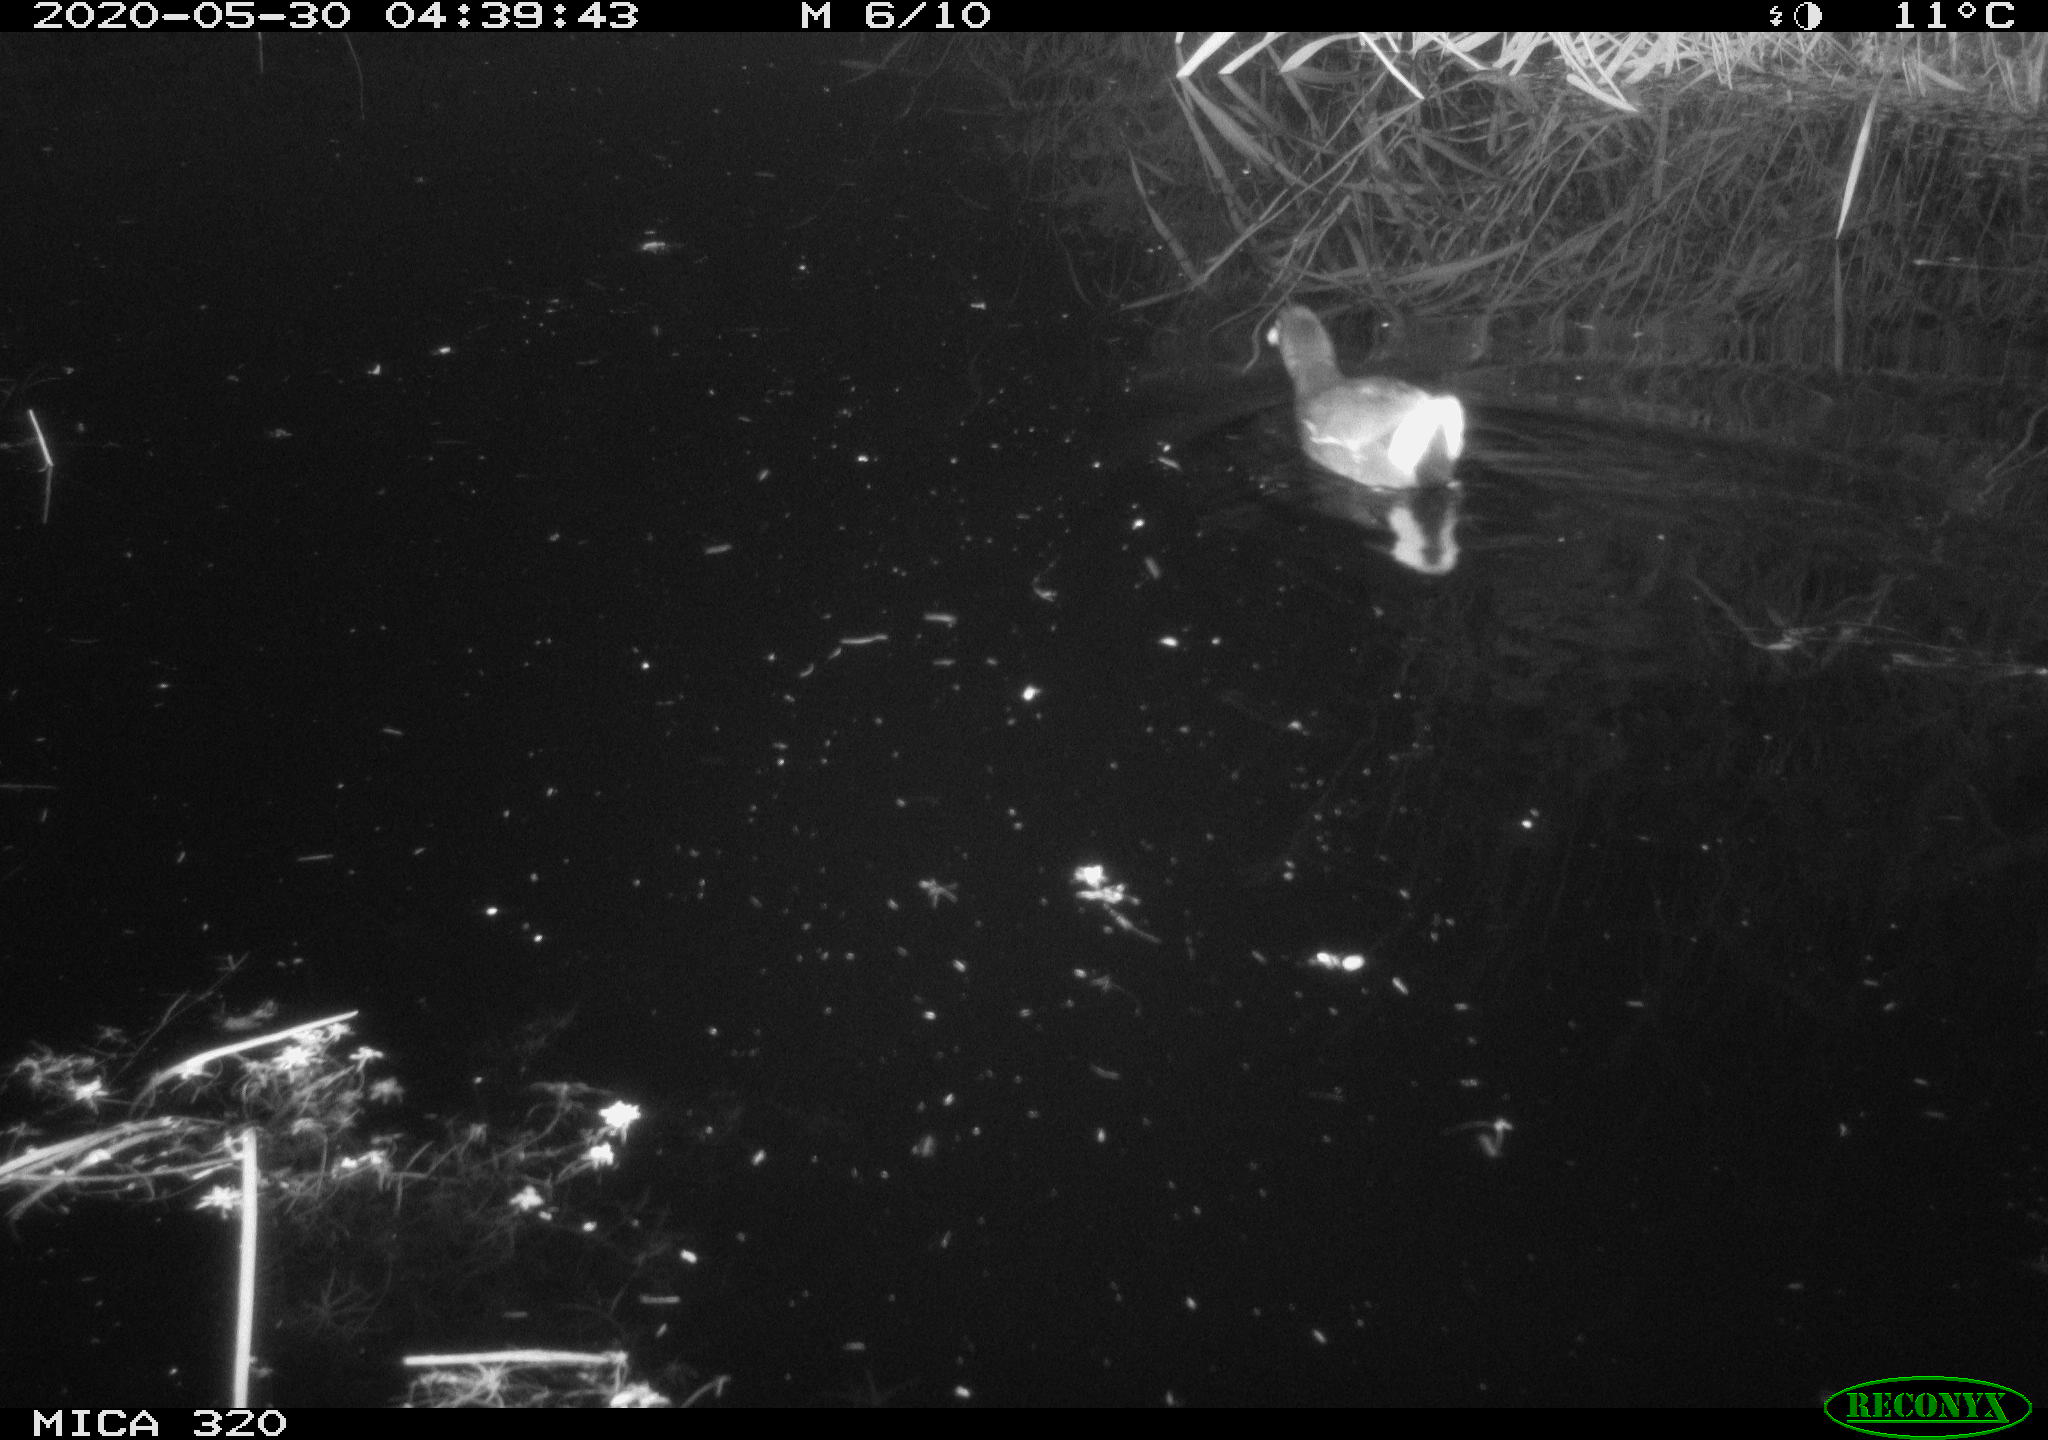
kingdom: Animalia
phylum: Chordata
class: Aves
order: Gruiformes
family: Rallidae
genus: Gallinula
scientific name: Gallinula chloropus
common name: Common moorhen
